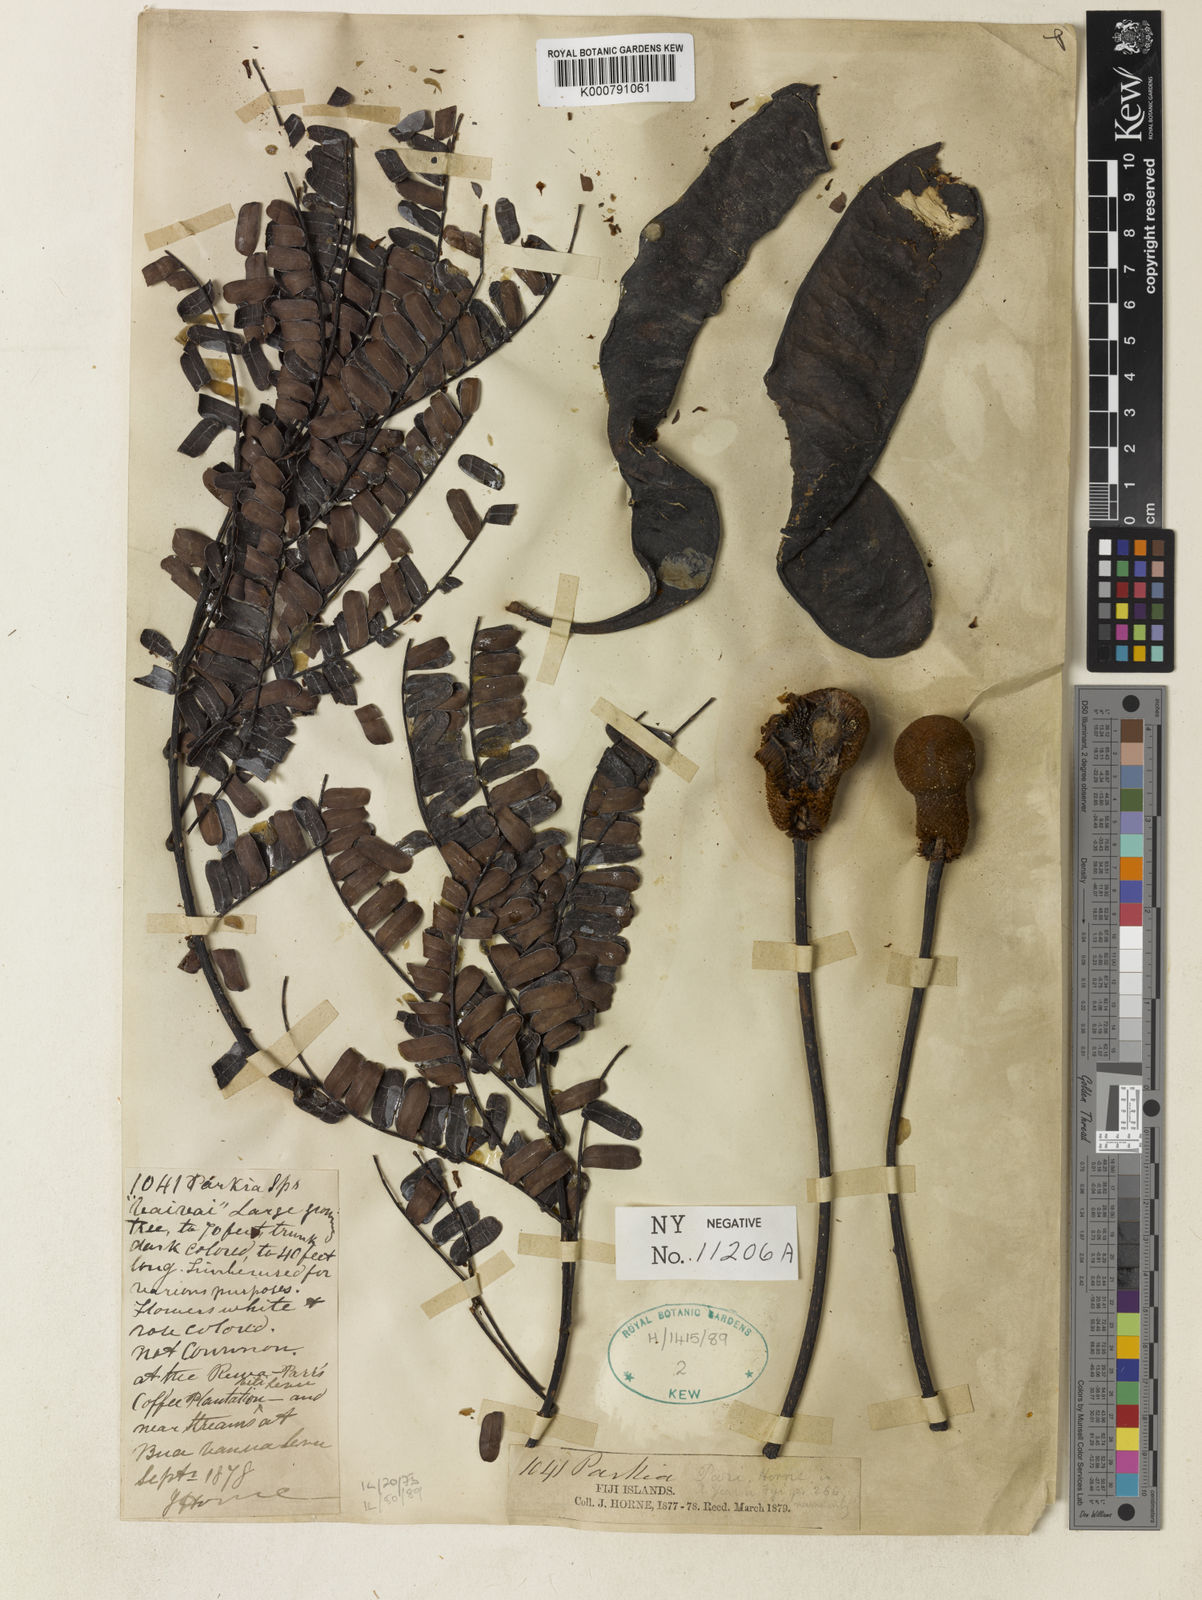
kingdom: Plantae
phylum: Tracheophyta
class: Magnoliopsida
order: Fabales
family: Fabaceae
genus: Parkia
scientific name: Parkia parrii
